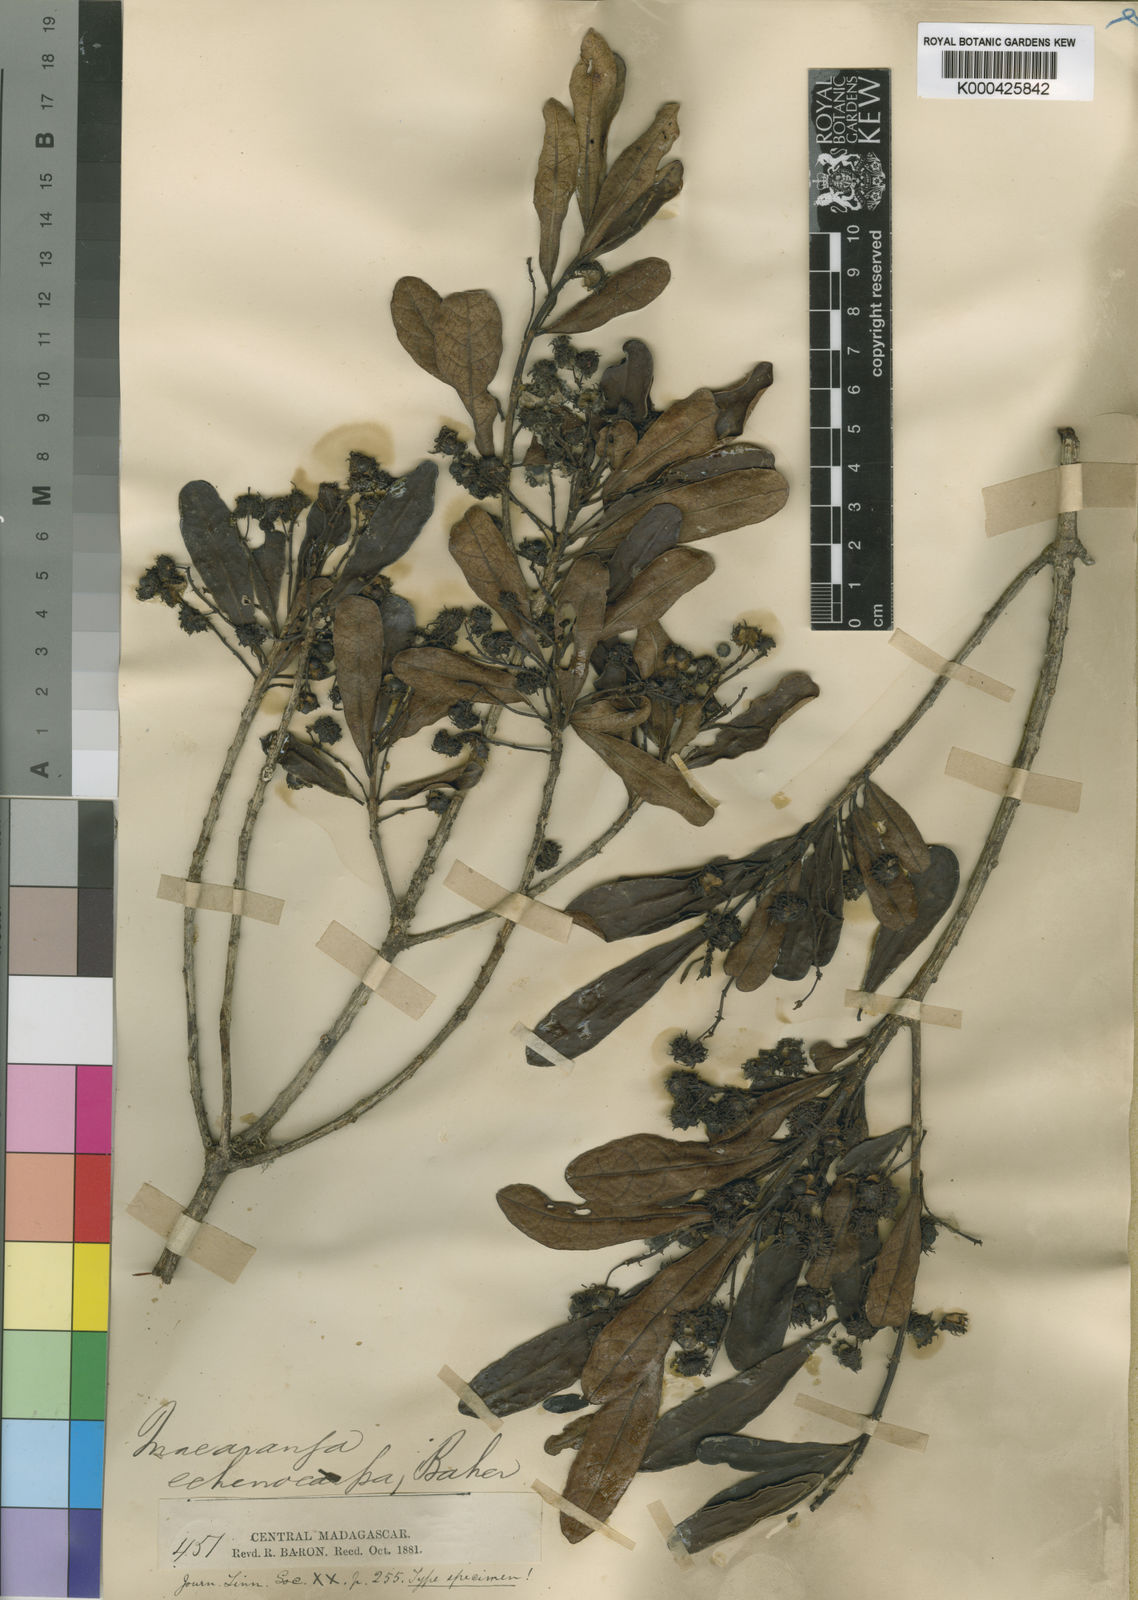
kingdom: Plantae
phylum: Tracheophyta
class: Magnoliopsida
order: Malpighiales
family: Euphorbiaceae
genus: Macaranga
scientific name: Macaranga echinocarpa
